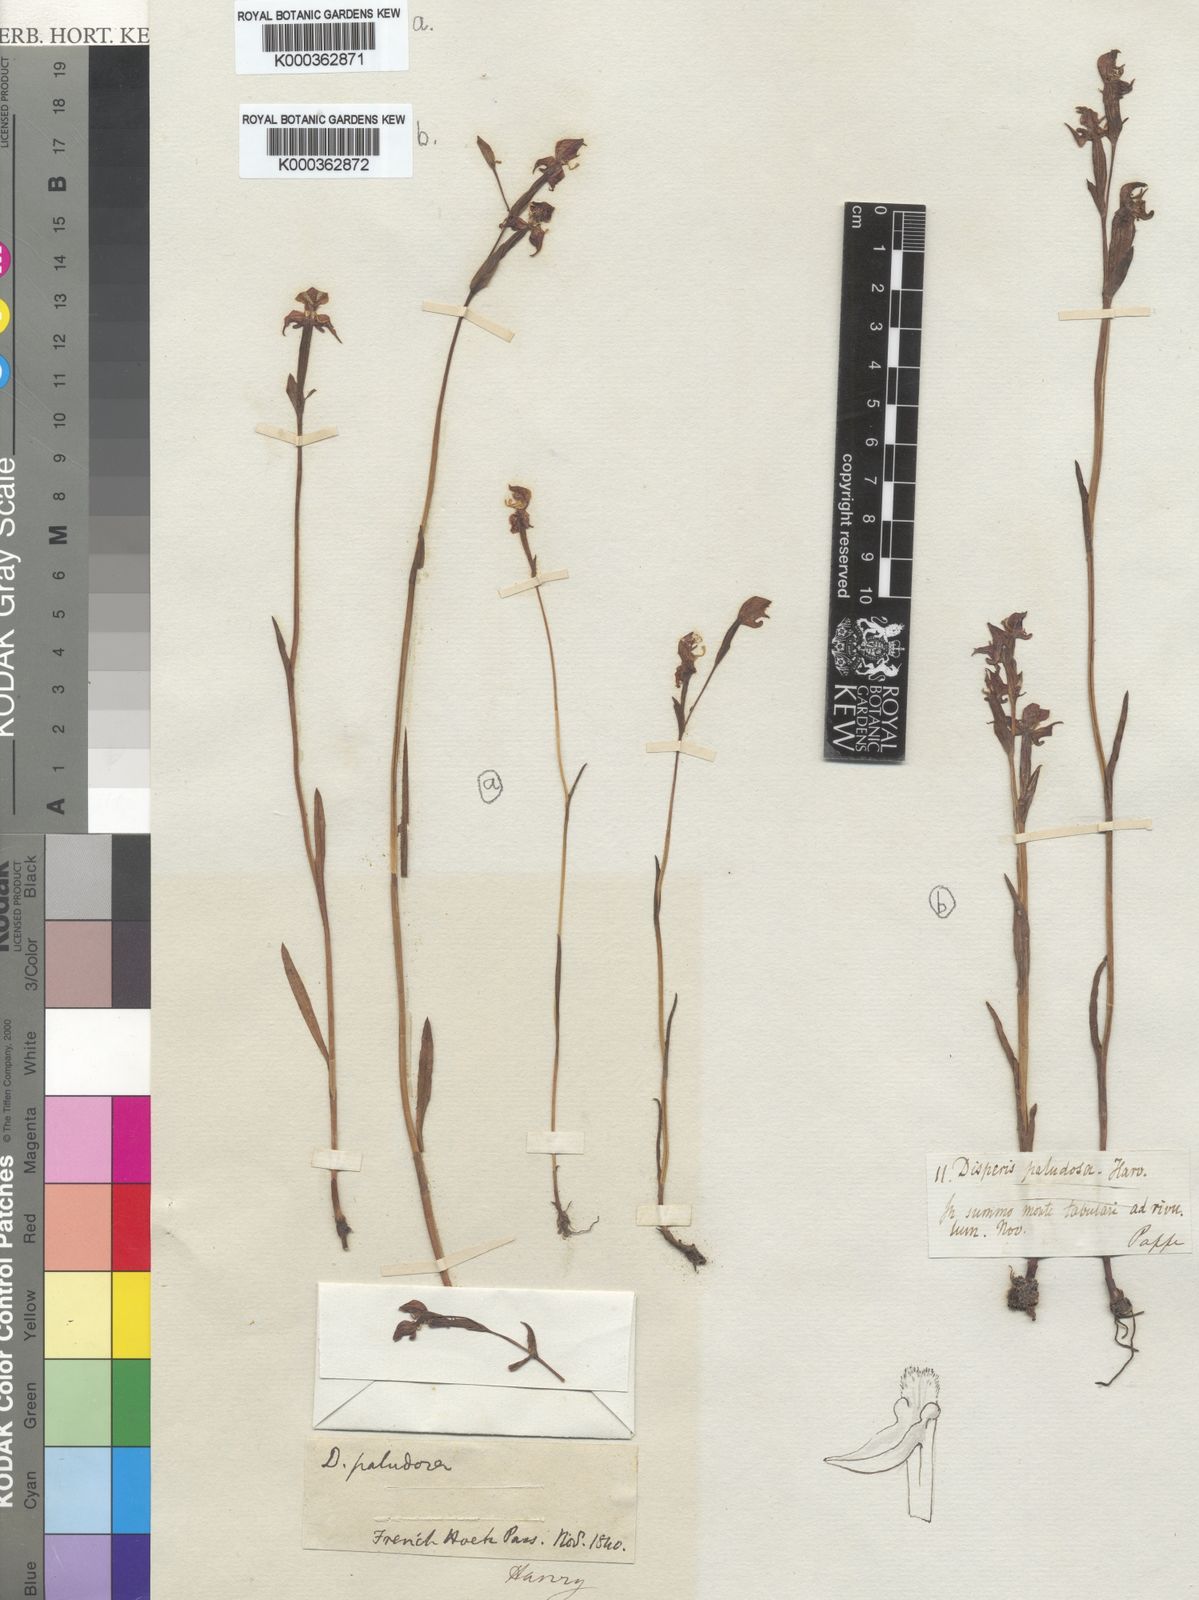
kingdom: Plantae
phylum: Tracheophyta
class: Liliopsida
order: Asparagales
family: Orchidaceae
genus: Disperis
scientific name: Disperis paludosa
